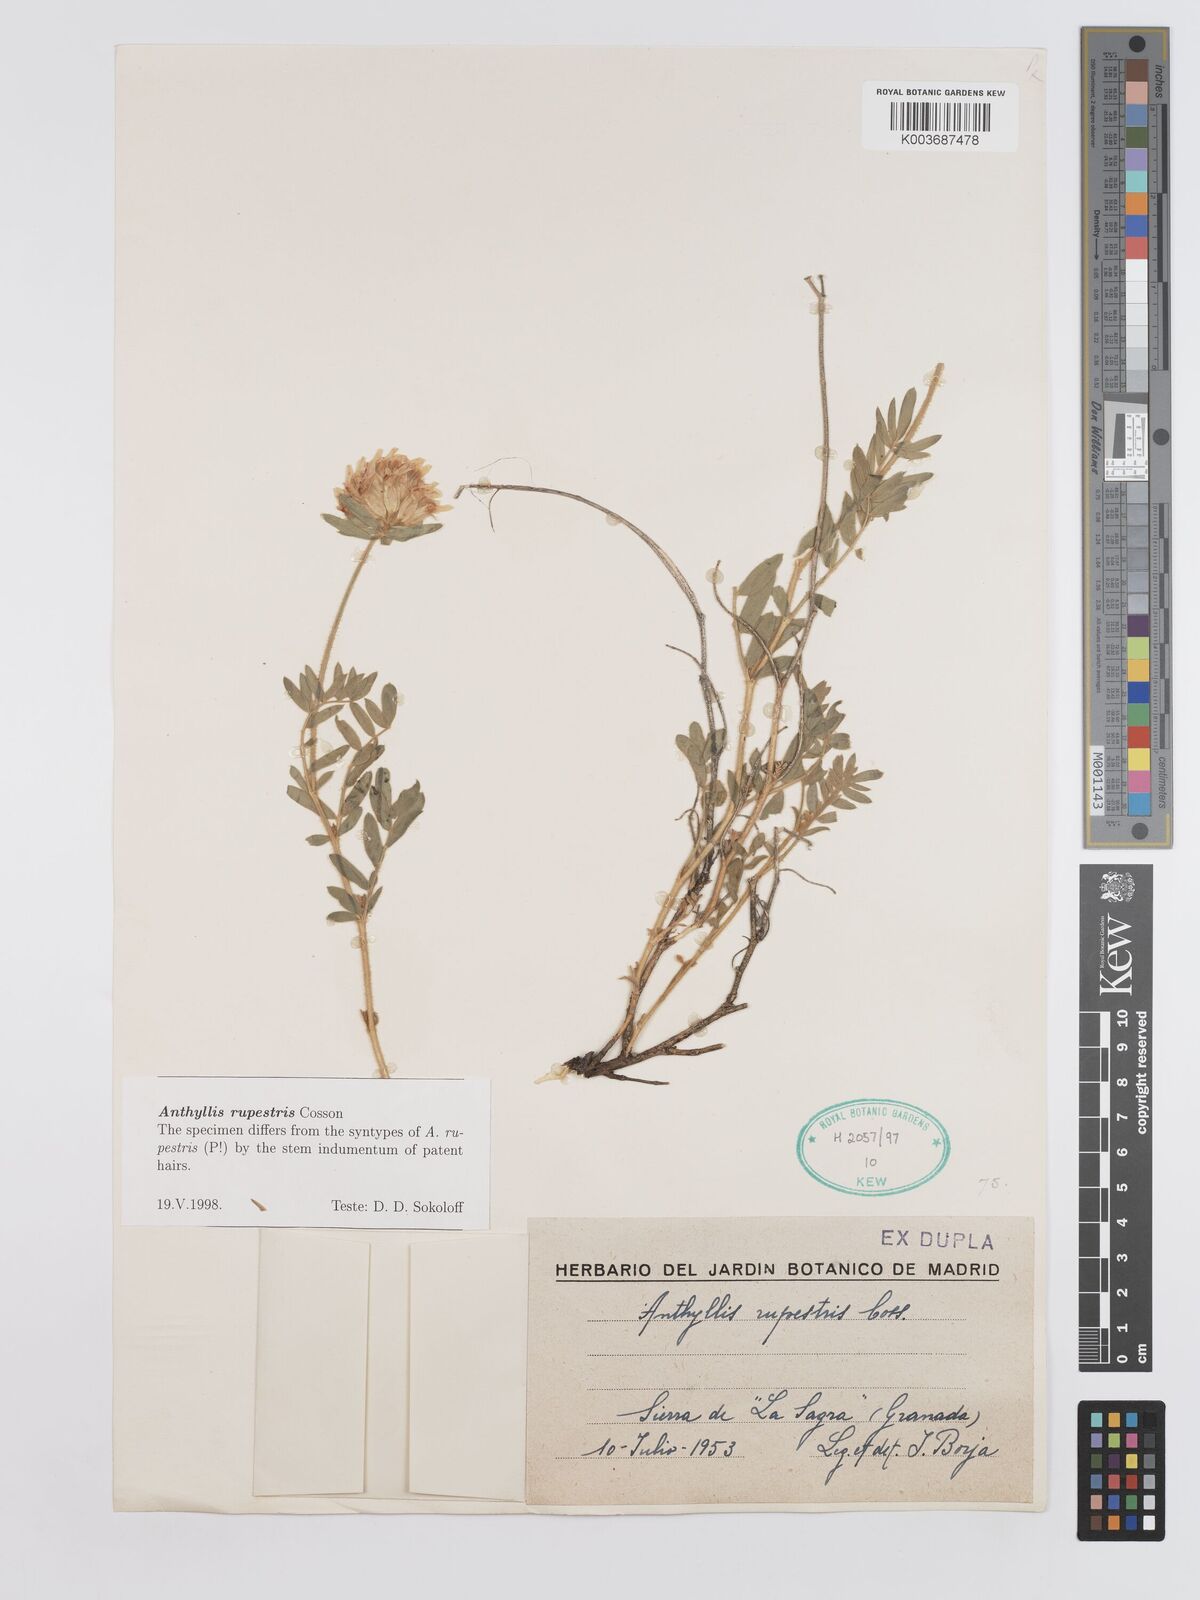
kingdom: Plantae
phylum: Tracheophyta
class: Magnoliopsida
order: Fabales
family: Fabaceae
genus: Anthyllis
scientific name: Anthyllis rupestris
